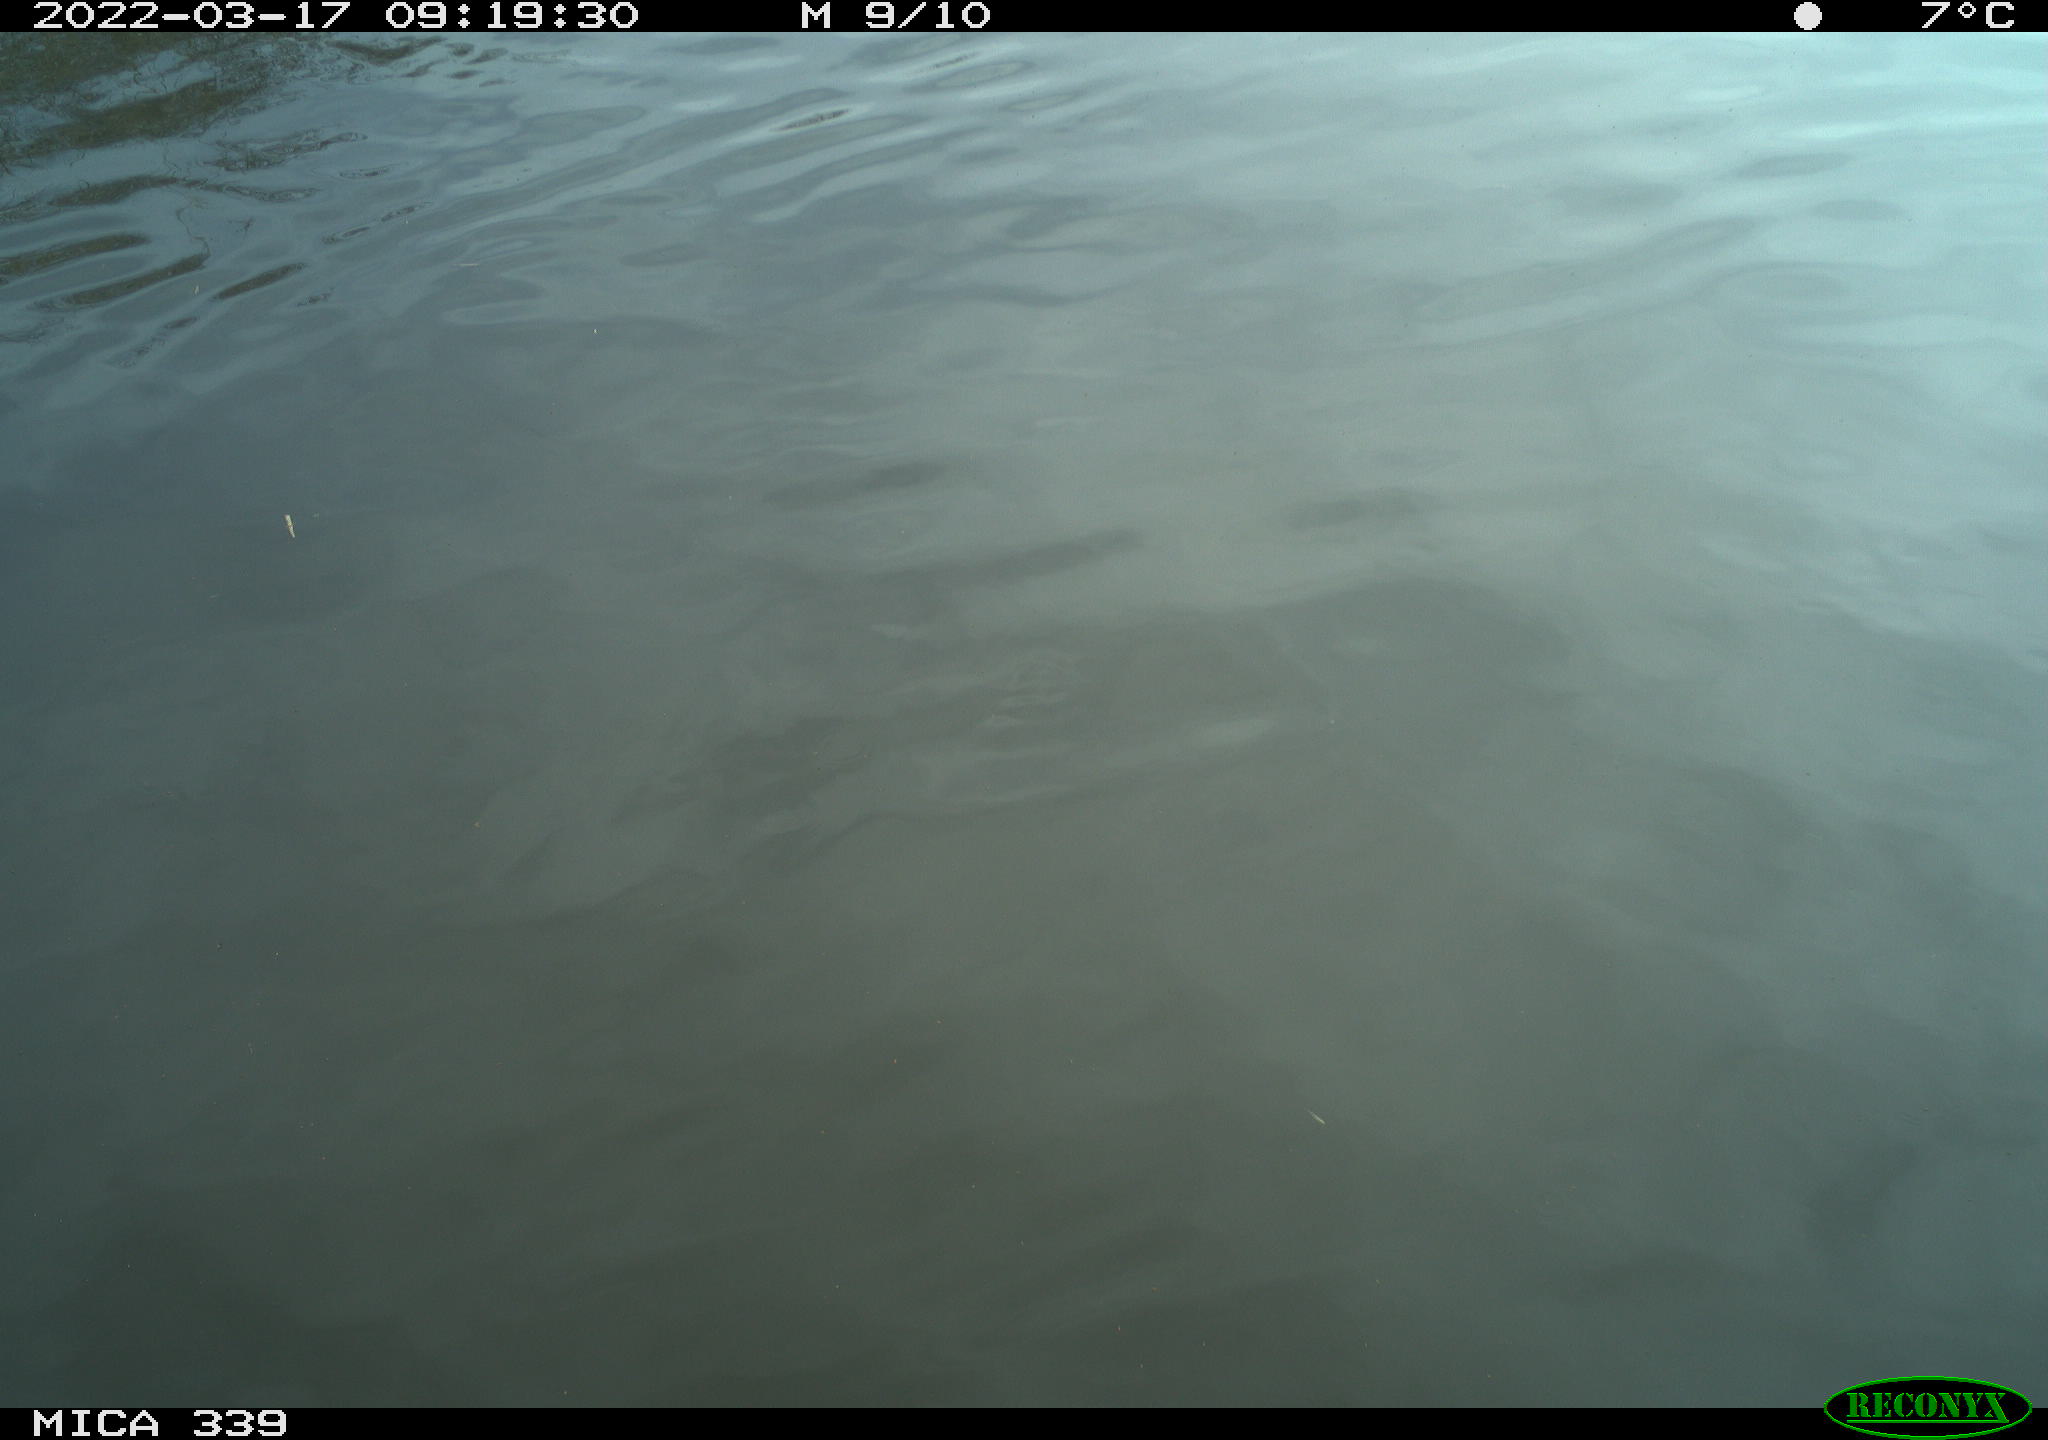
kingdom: Animalia
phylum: Chordata
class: Aves
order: Anseriformes
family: Anatidae
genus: Anas
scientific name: Anas platyrhynchos
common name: Mallard
